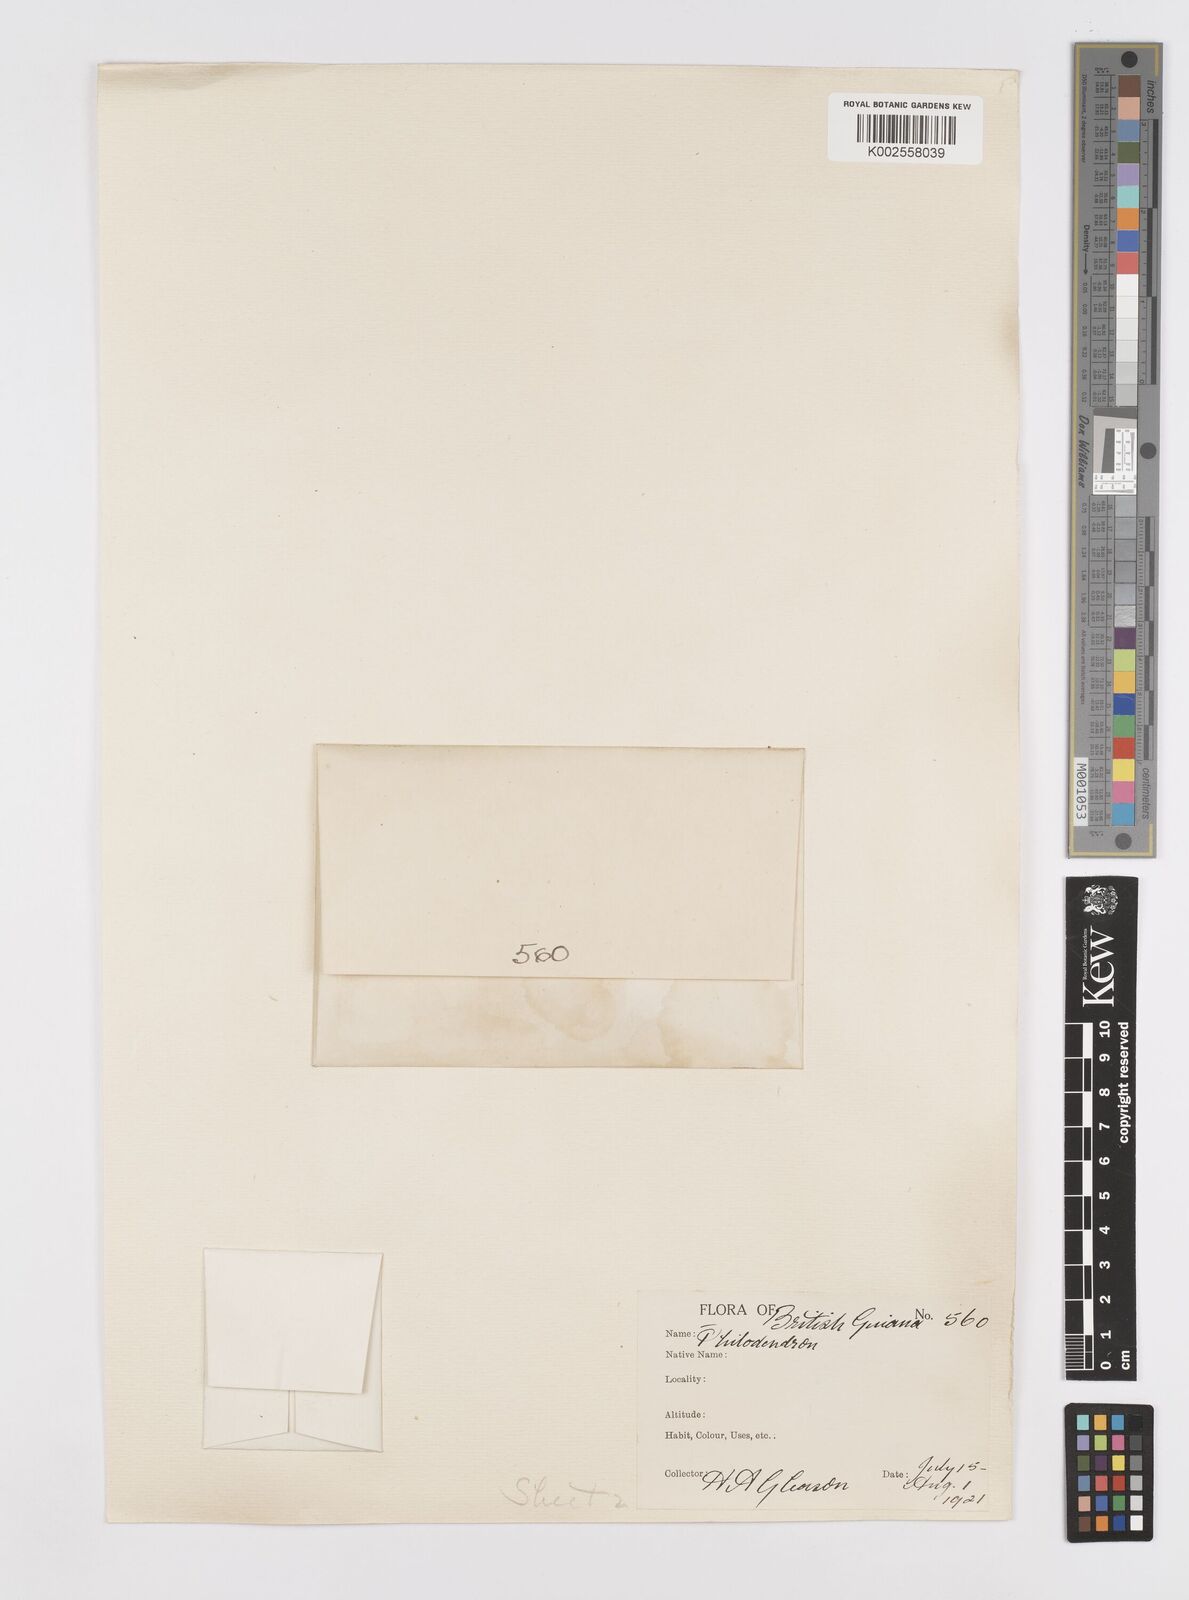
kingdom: Plantae
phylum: Tracheophyta
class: Liliopsida
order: Alismatales
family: Araceae
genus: Philodendron
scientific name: Philodendron fragrantissimum
